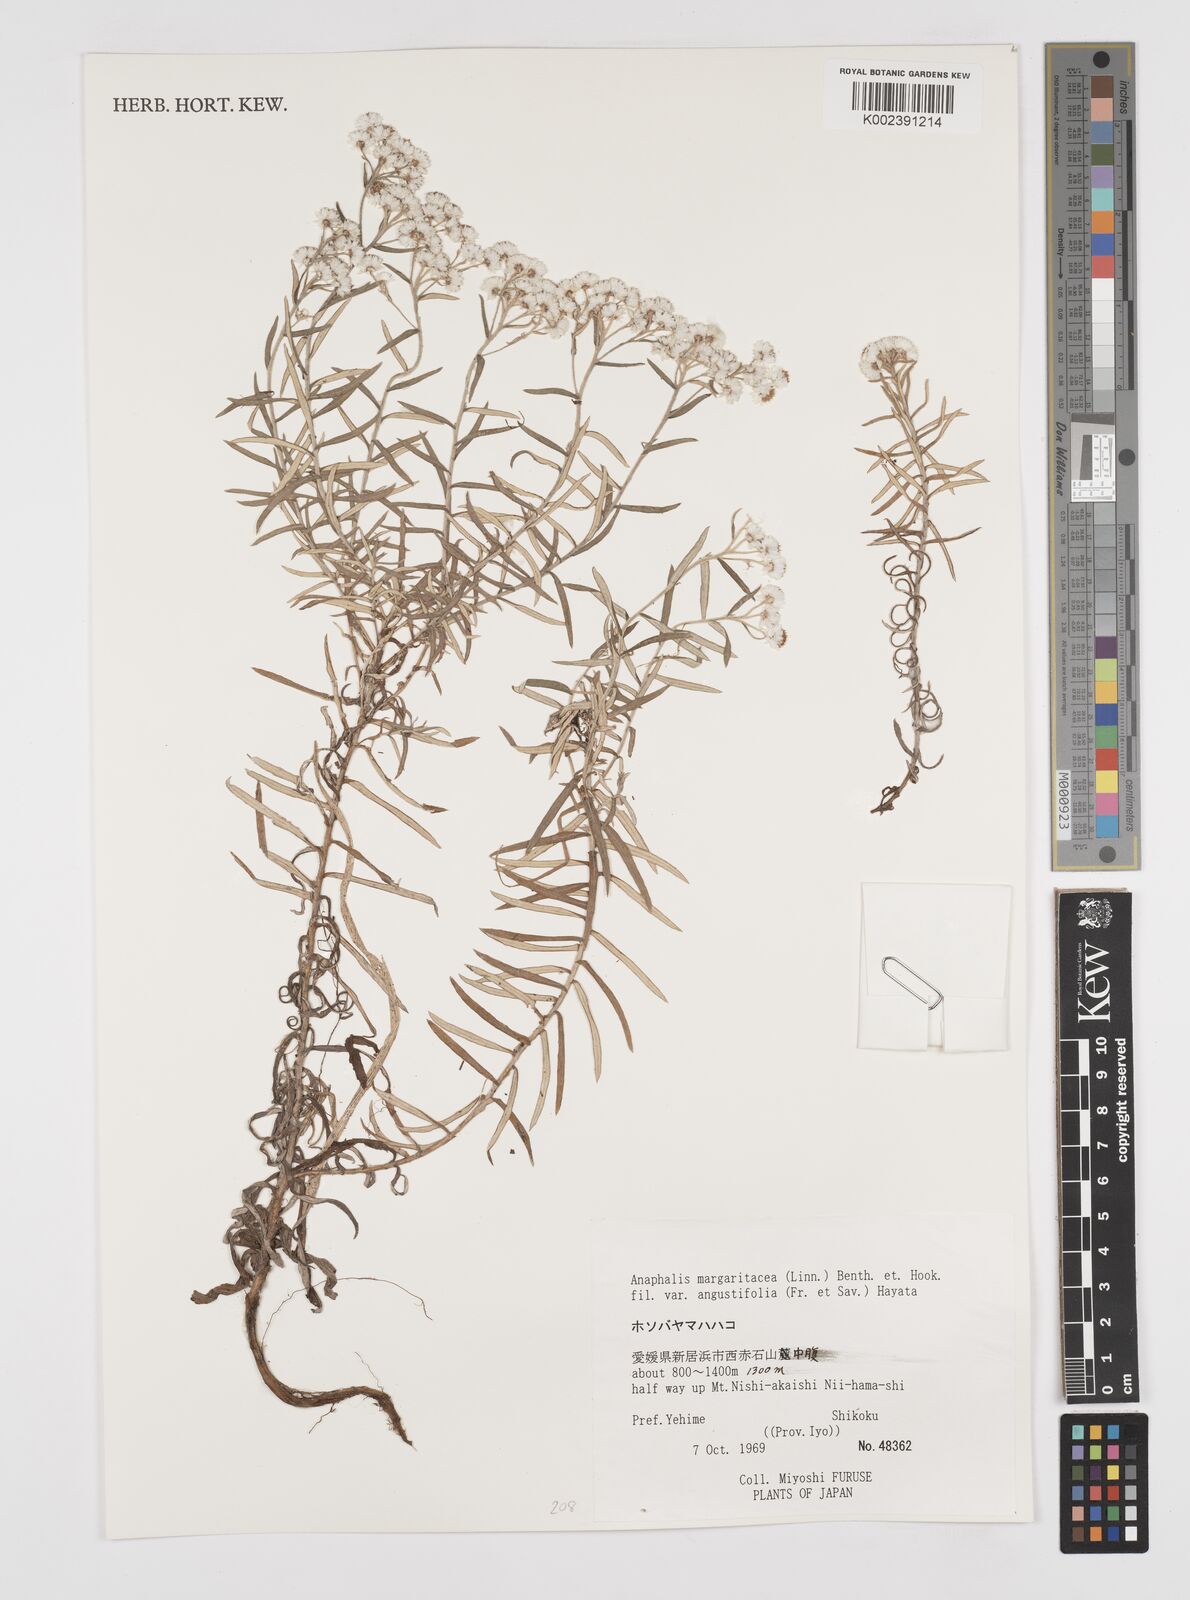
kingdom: Plantae
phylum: Tracheophyta
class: Magnoliopsida
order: Asterales
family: Asteraceae
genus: Anaphalis
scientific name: Anaphalis margaritacea
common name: Pearly everlasting
